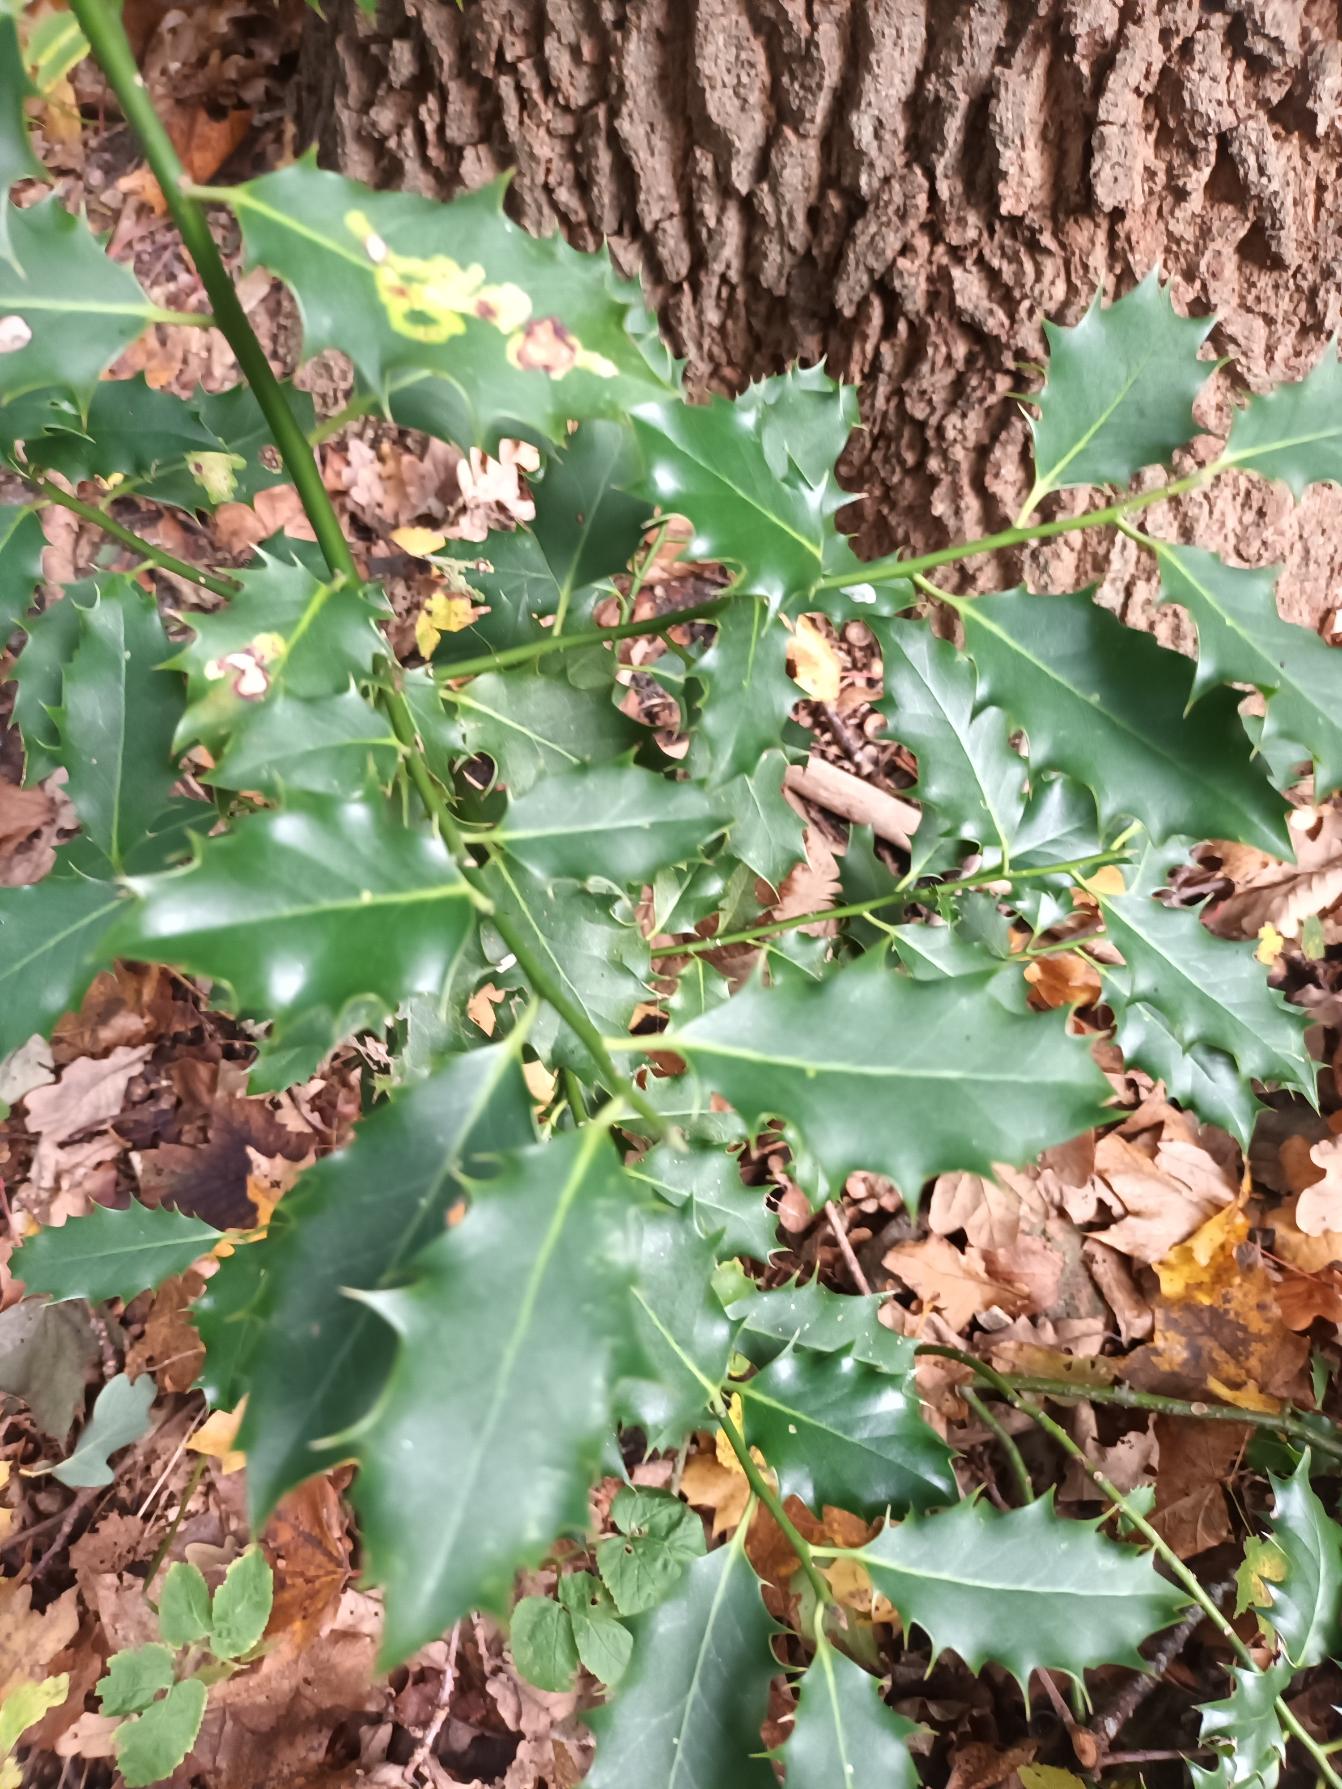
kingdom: Plantae
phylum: Tracheophyta
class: Magnoliopsida
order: Aquifoliales
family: Aquifoliaceae
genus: Ilex
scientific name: Ilex aquifolium
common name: Kristtorn
